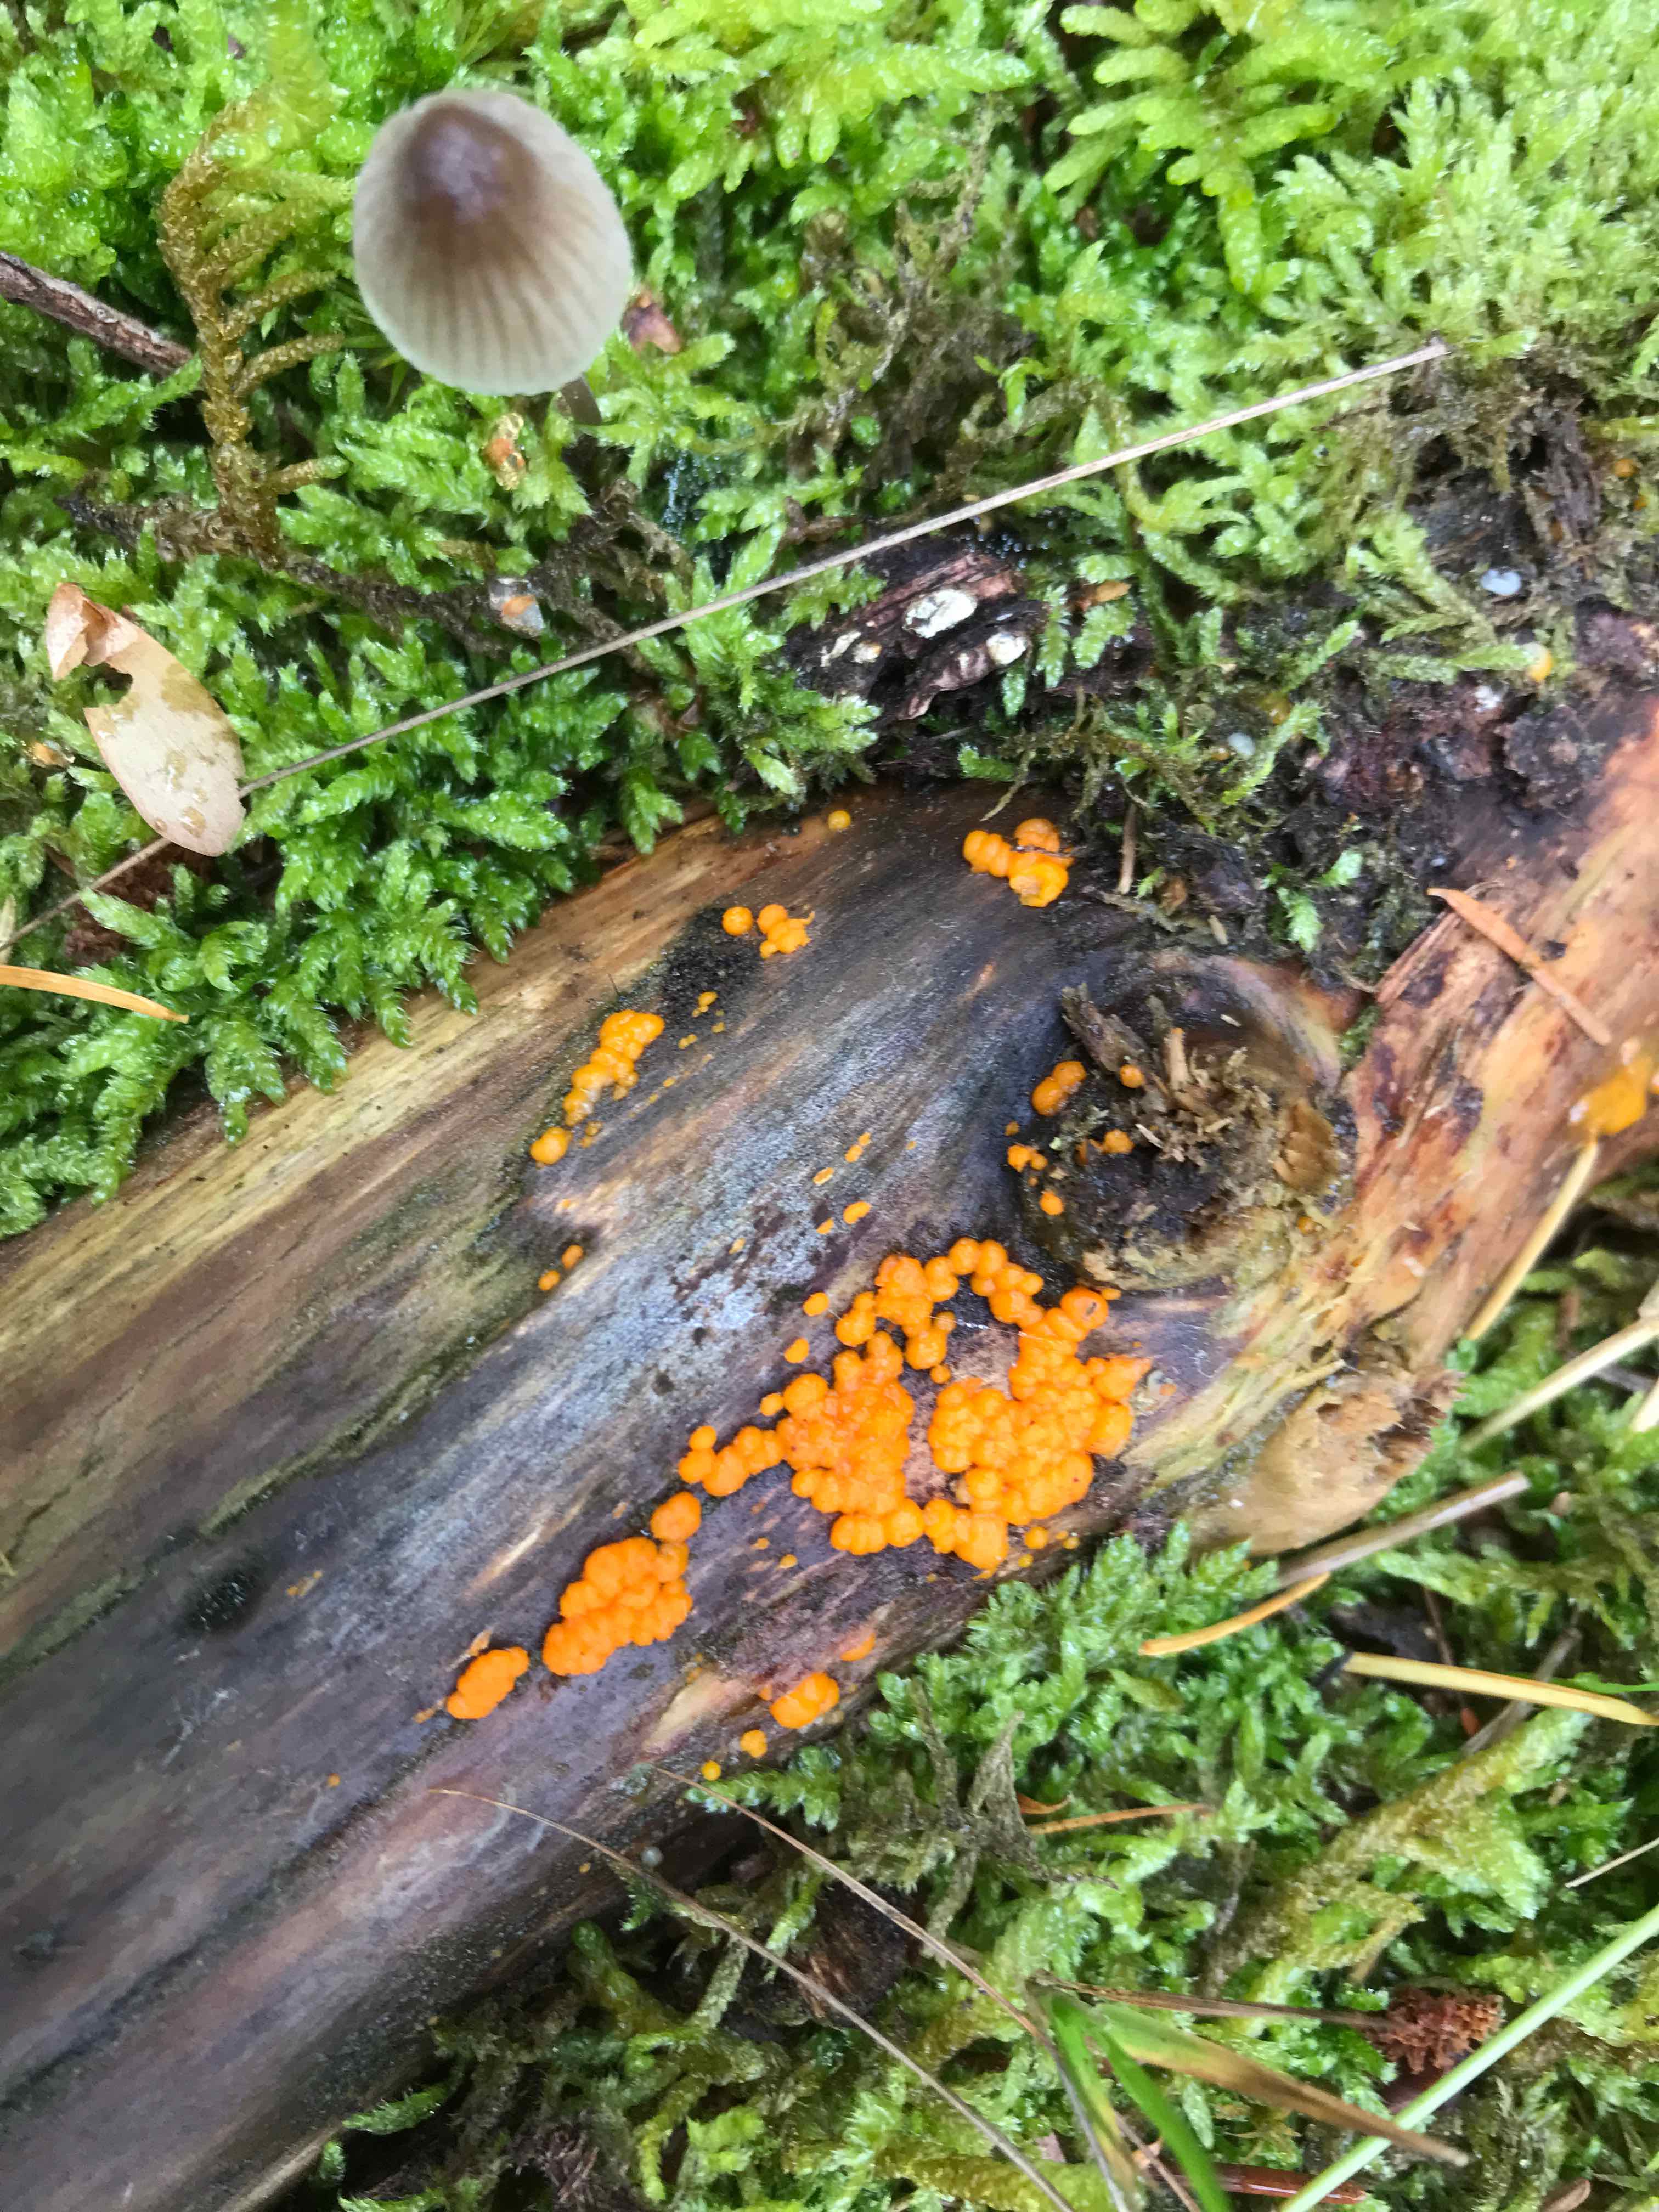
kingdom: Fungi
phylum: Basidiomycota
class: Dacrymycetes
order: Dacrymycetales
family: Dacrymycetaceae
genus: Dacrymyces
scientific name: Dacrymyces stillatus
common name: almindelig tåresvamp
